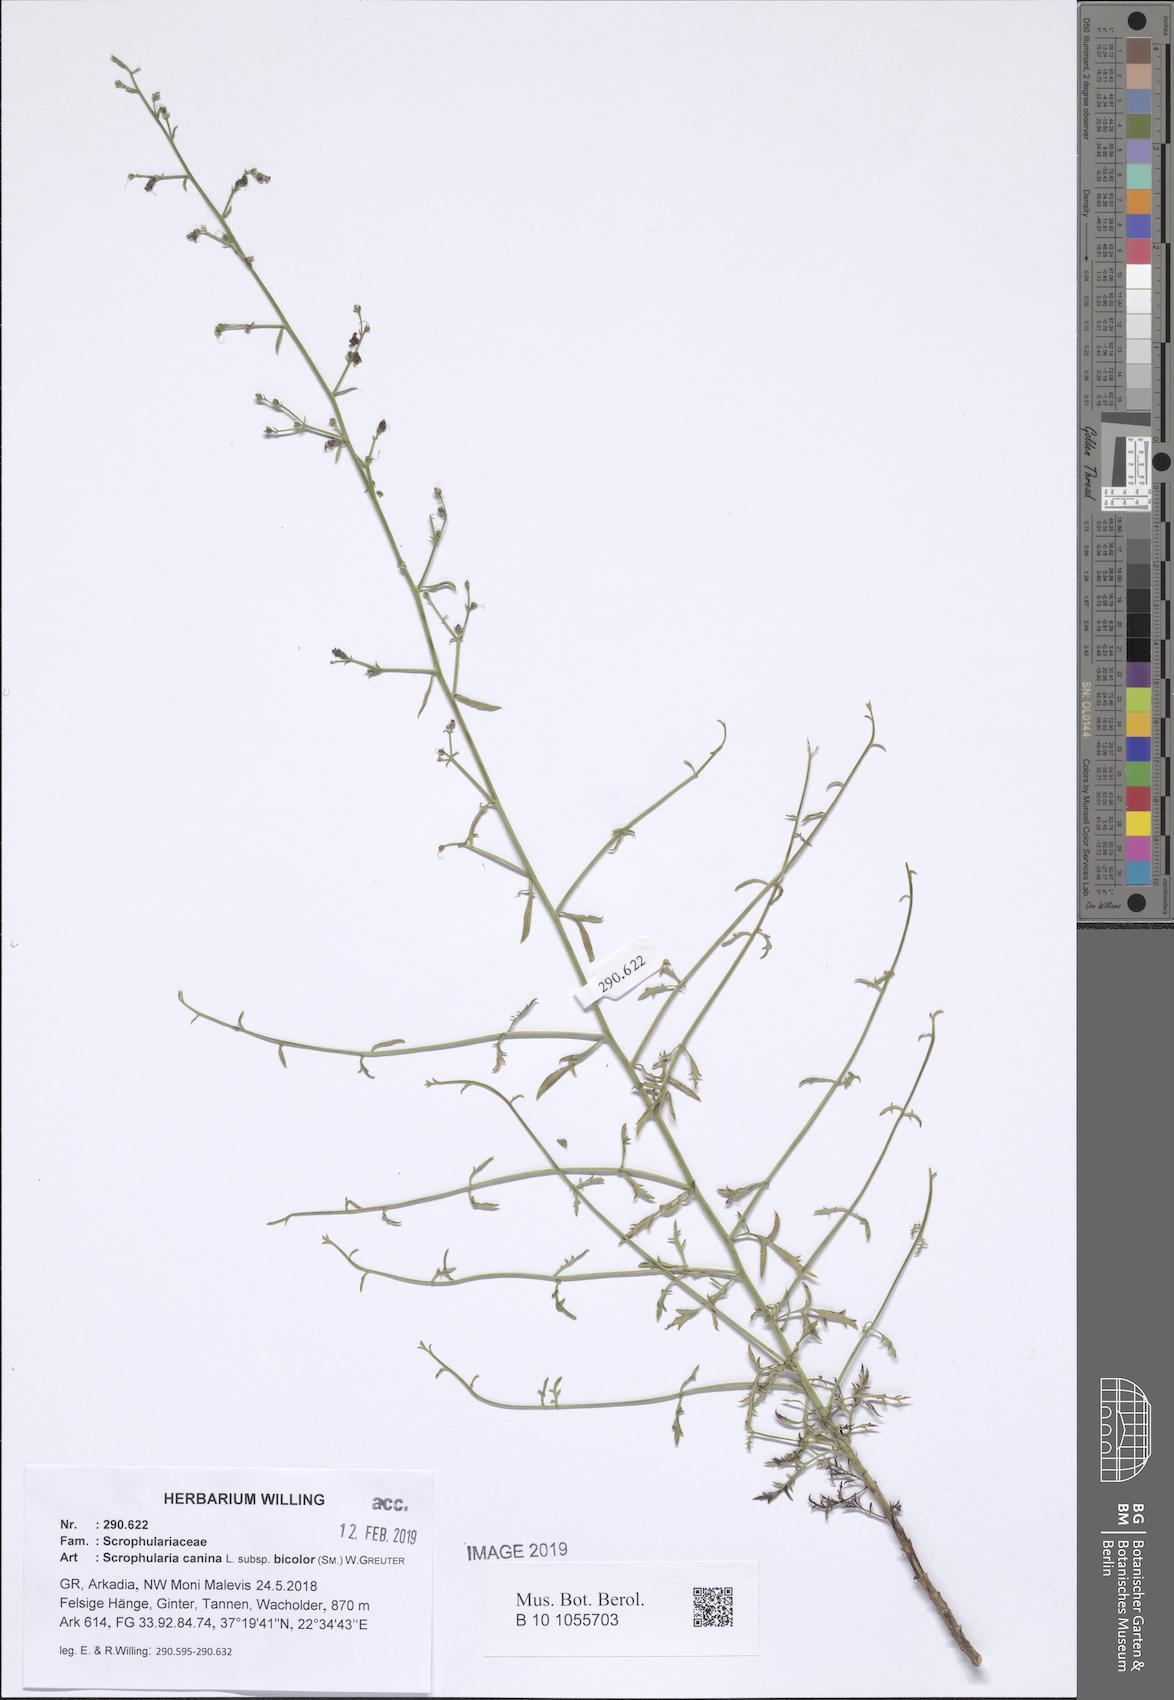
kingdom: Plantae
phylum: Tracheophyta
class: Magnoliopsida
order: Lamiales
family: Scrophulariaceae
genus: Scrophularia
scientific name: Scrophularia canina
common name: French figwort
